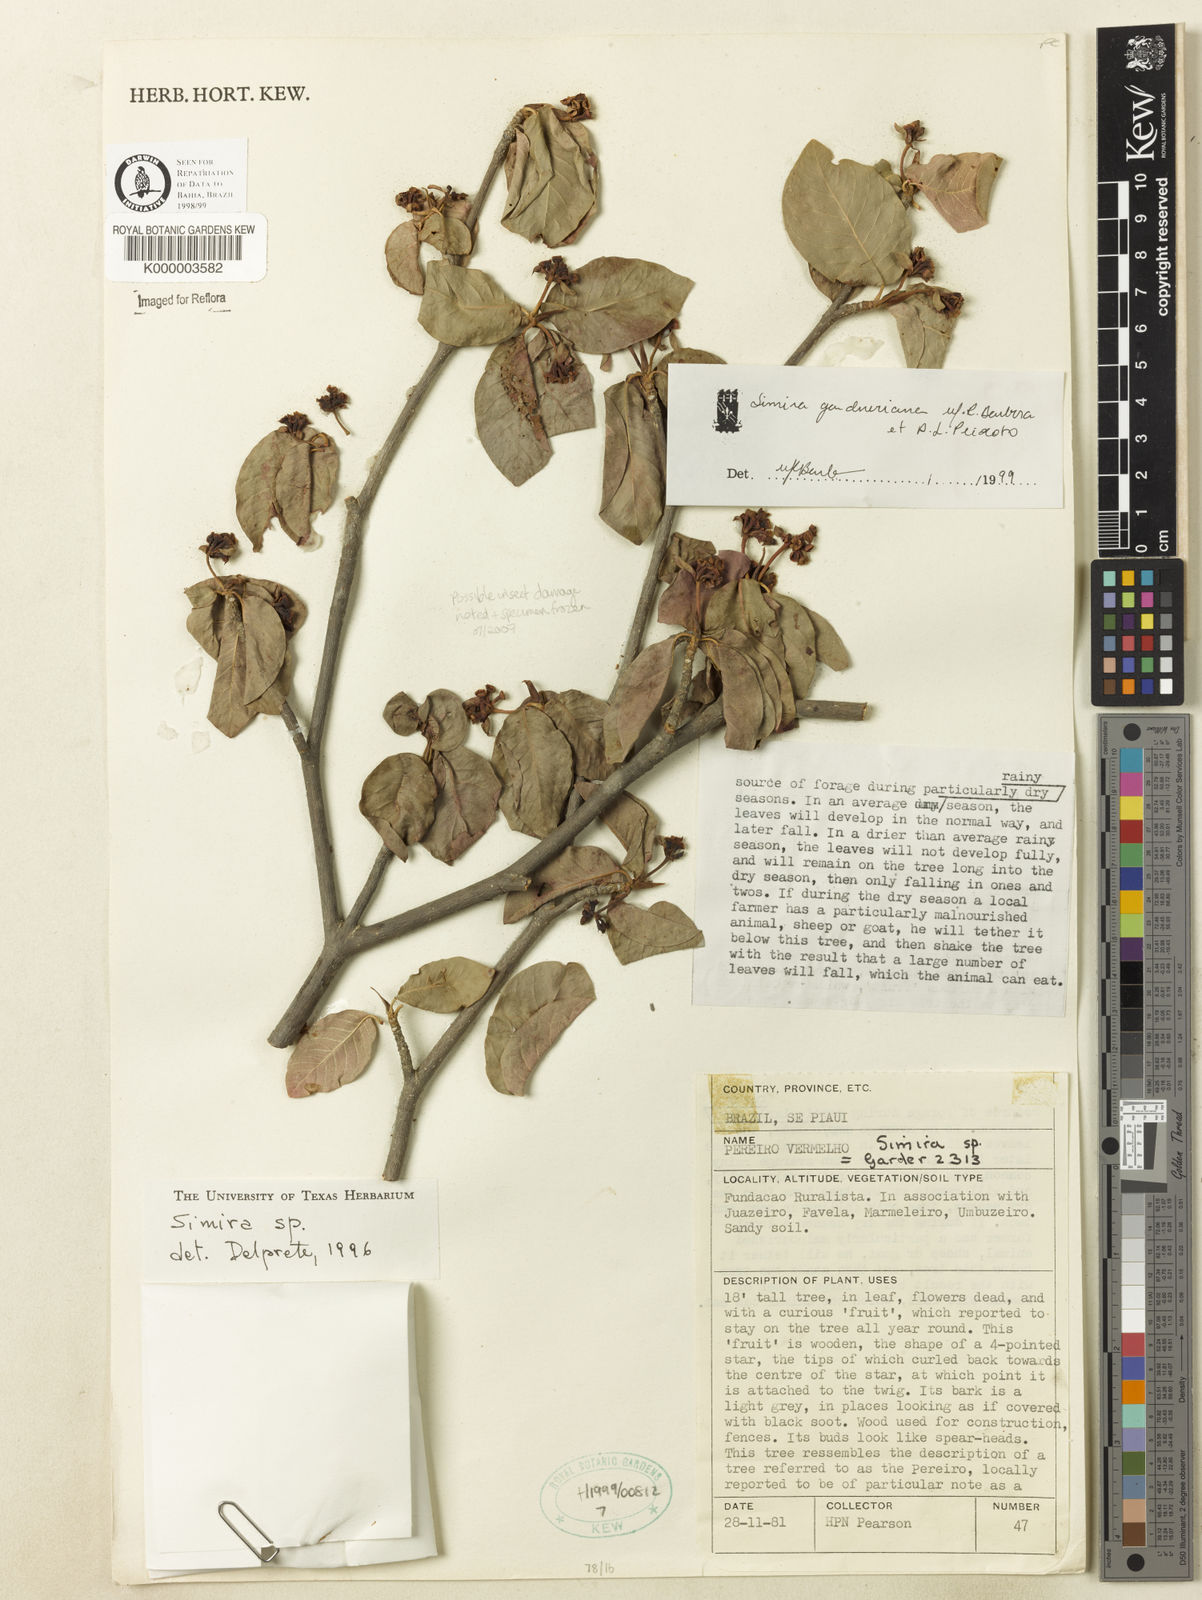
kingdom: Plantae
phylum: Tracheophyta
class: Magnoliopsida
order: Gentianales
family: Rubiaceae
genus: Simira
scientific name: Simira gardneriana
